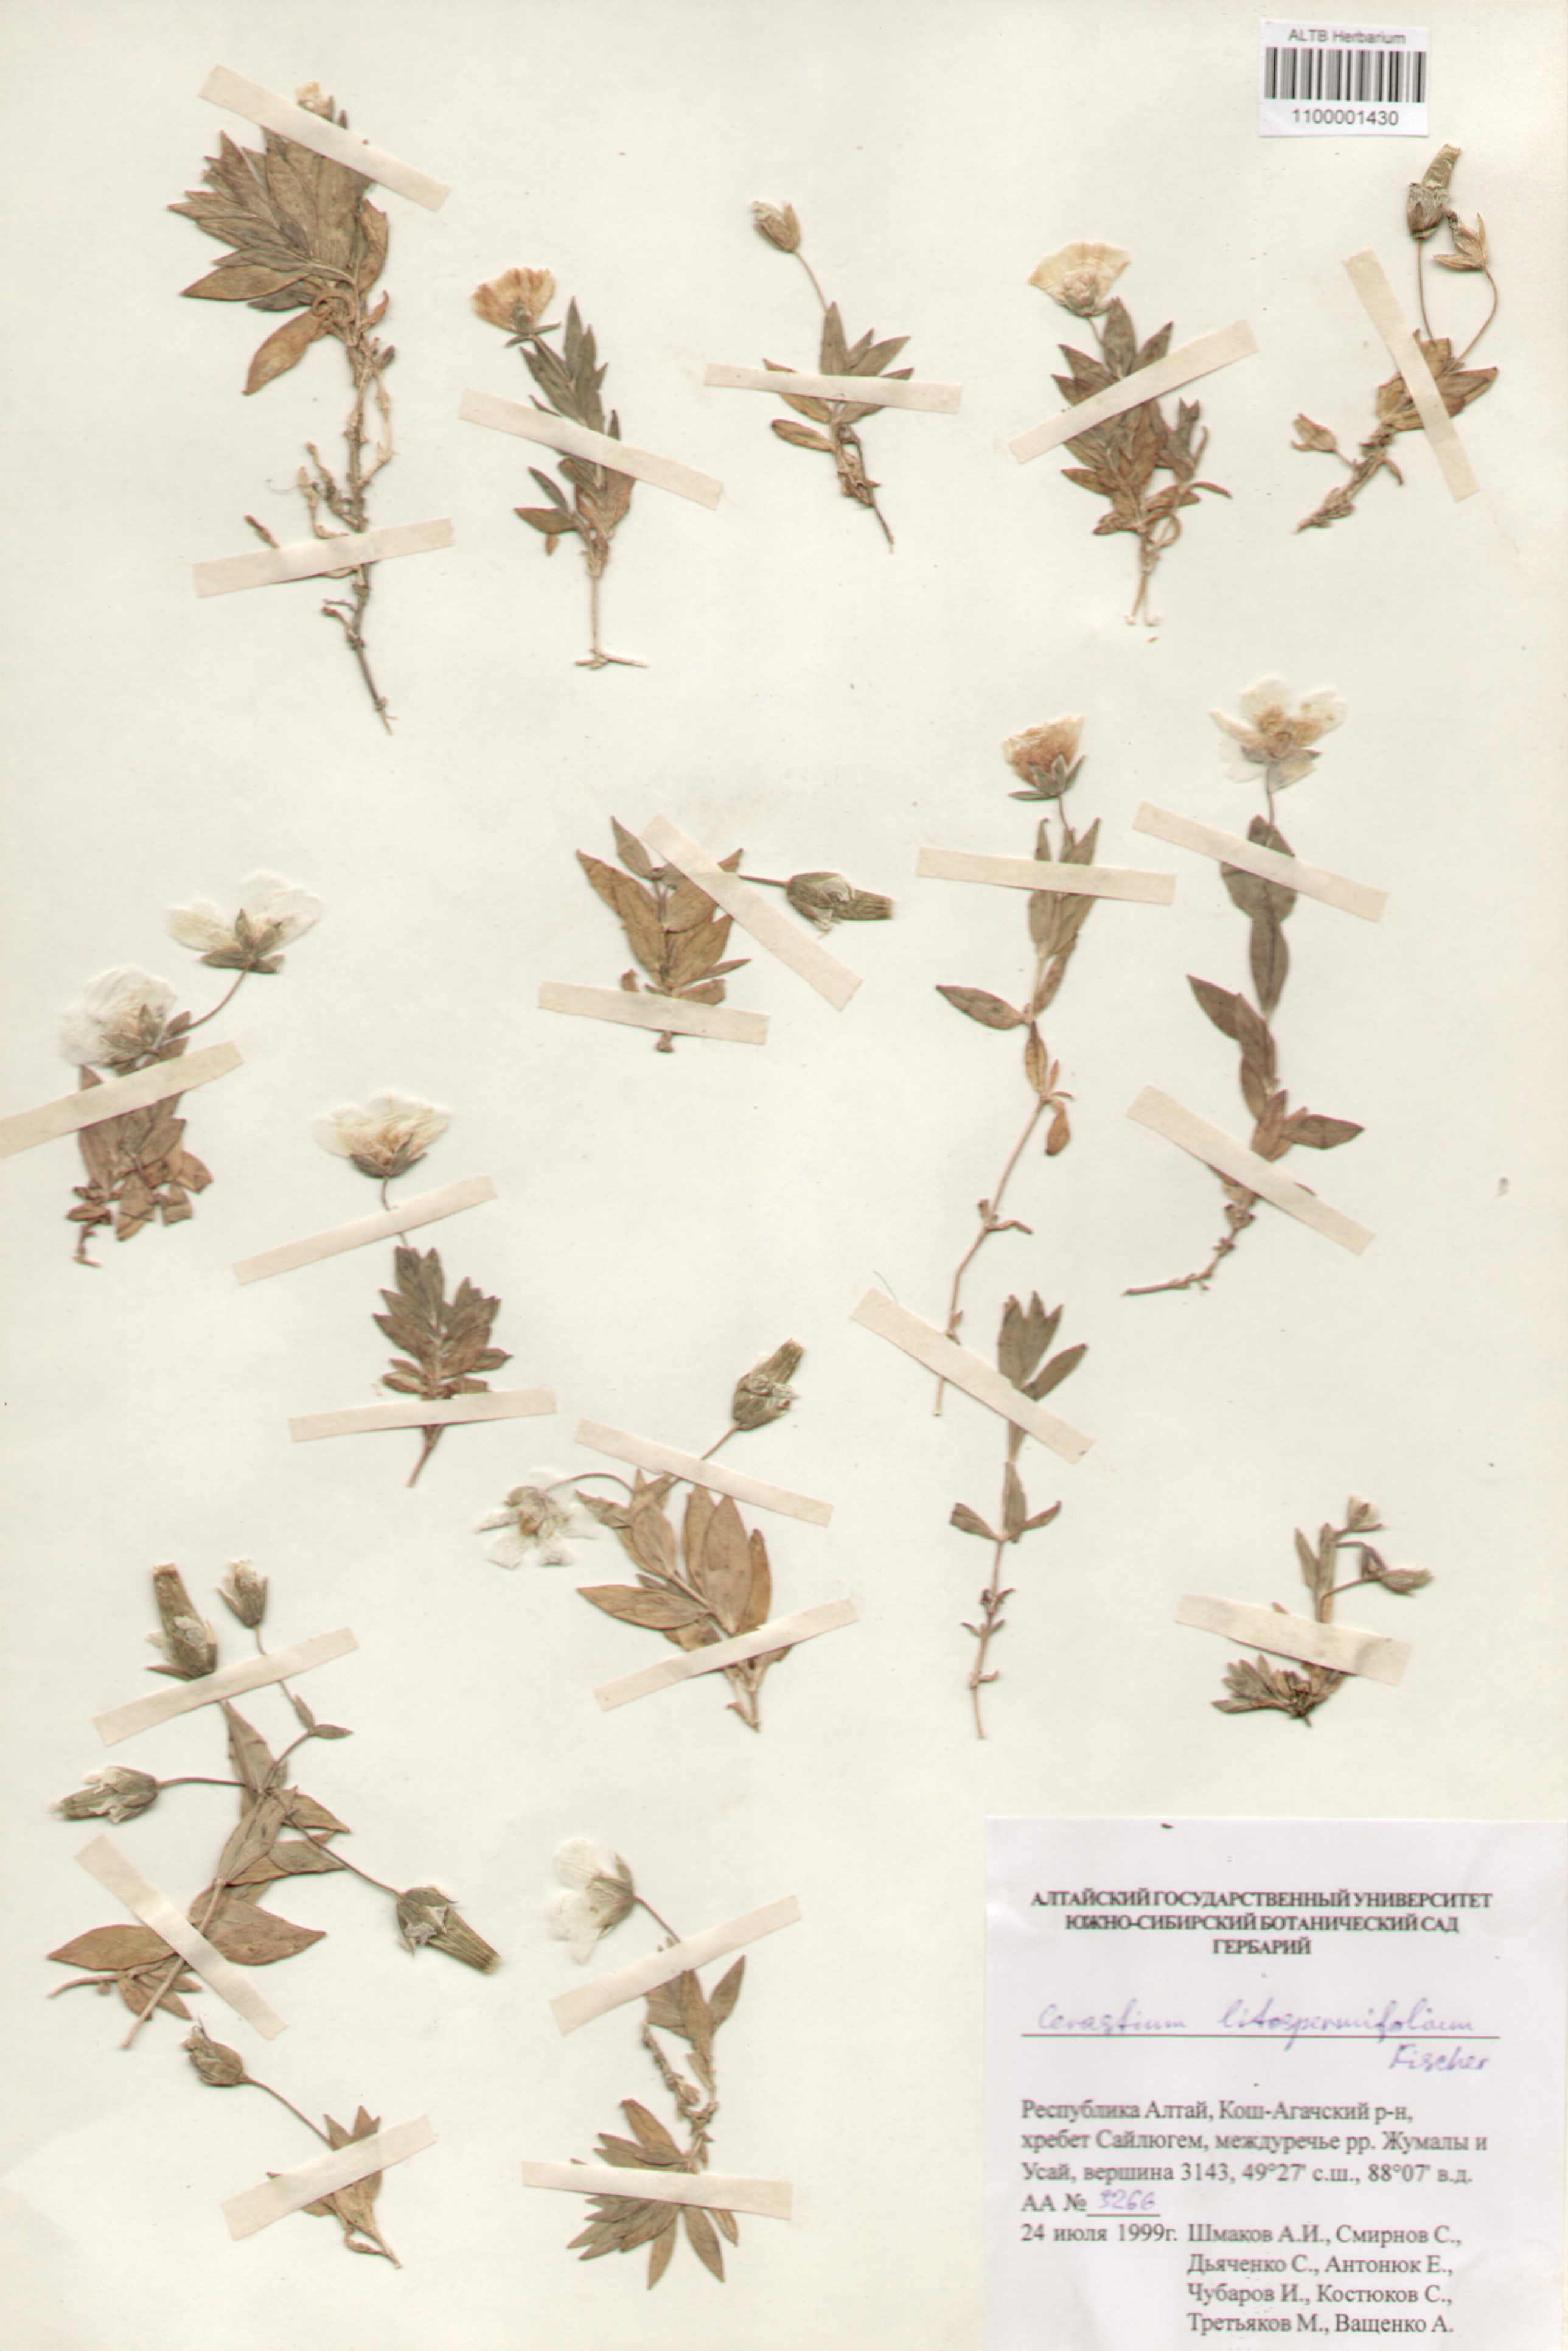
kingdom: Plantae
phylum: Tracheophyta
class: Magnoliopsida
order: Caryophyllales
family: Caryophyllaceae
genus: Cerastium
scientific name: Cerastium lithospermifolium
